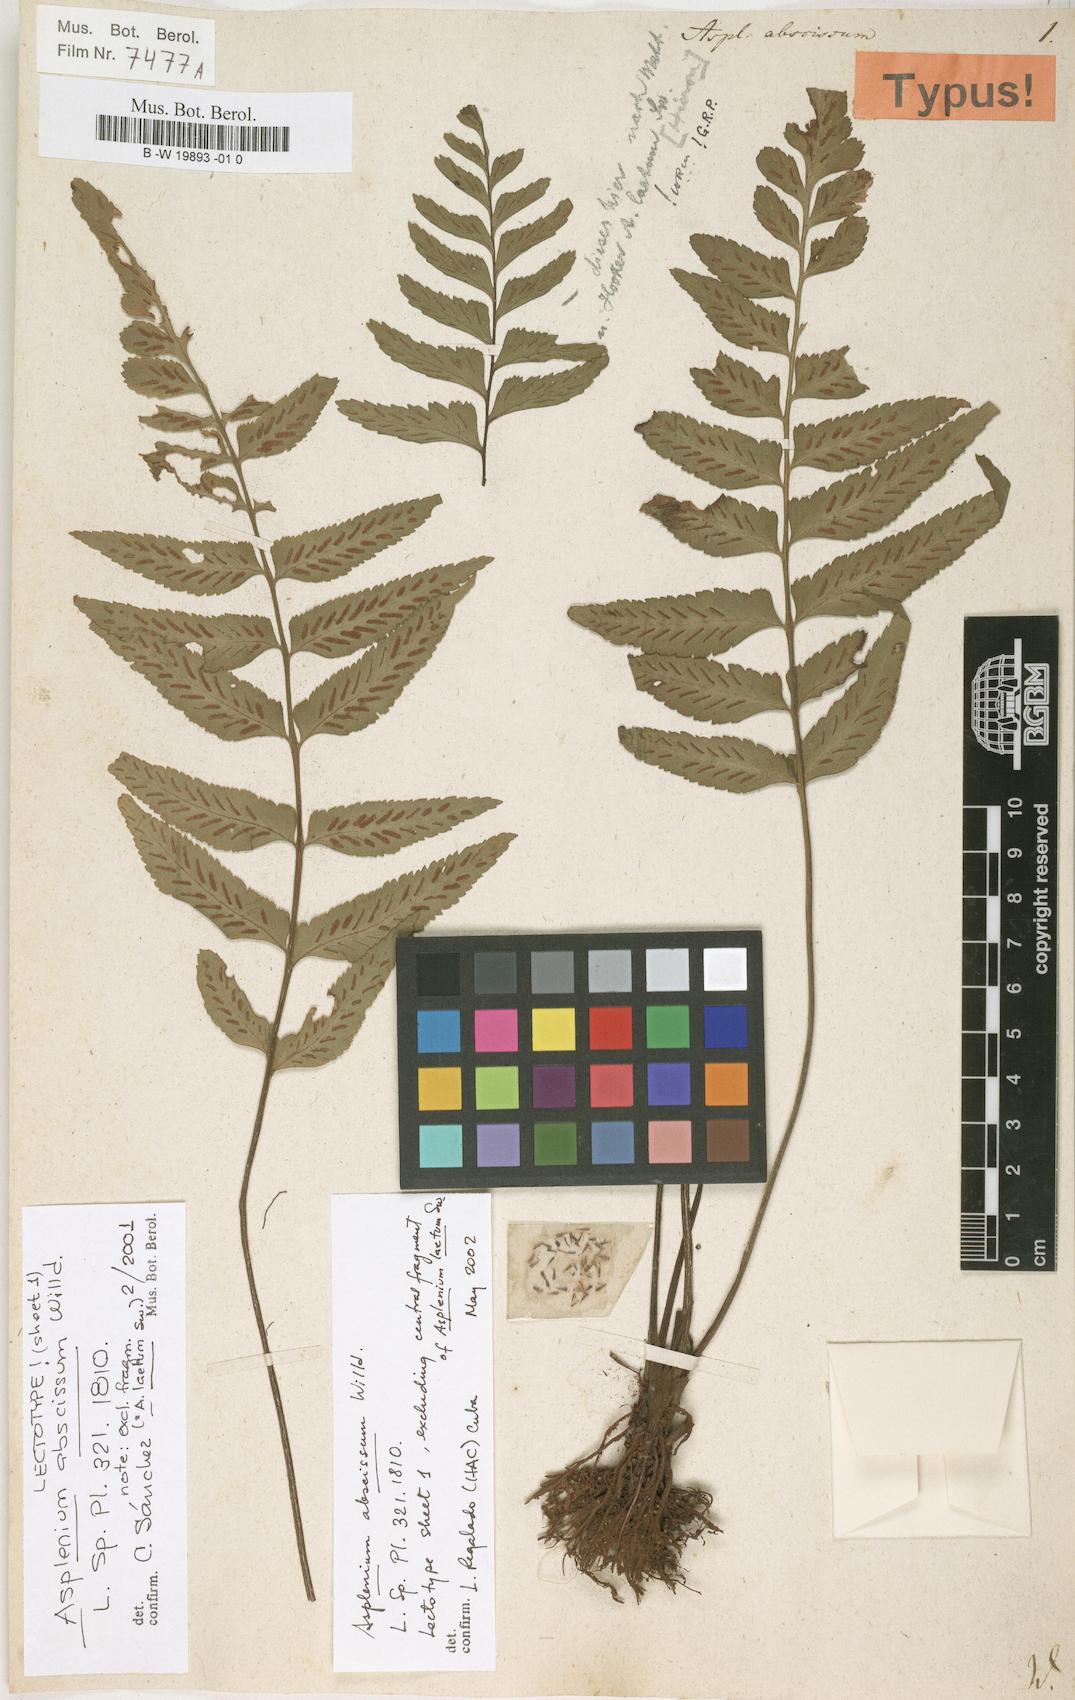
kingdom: Plantae
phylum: Tracheophyta
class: Polypodiopsida
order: Polypodiales
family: Aspleniaceae
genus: Asplenium
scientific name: Asplenium abscissum
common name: Cutleaf spleenwort
